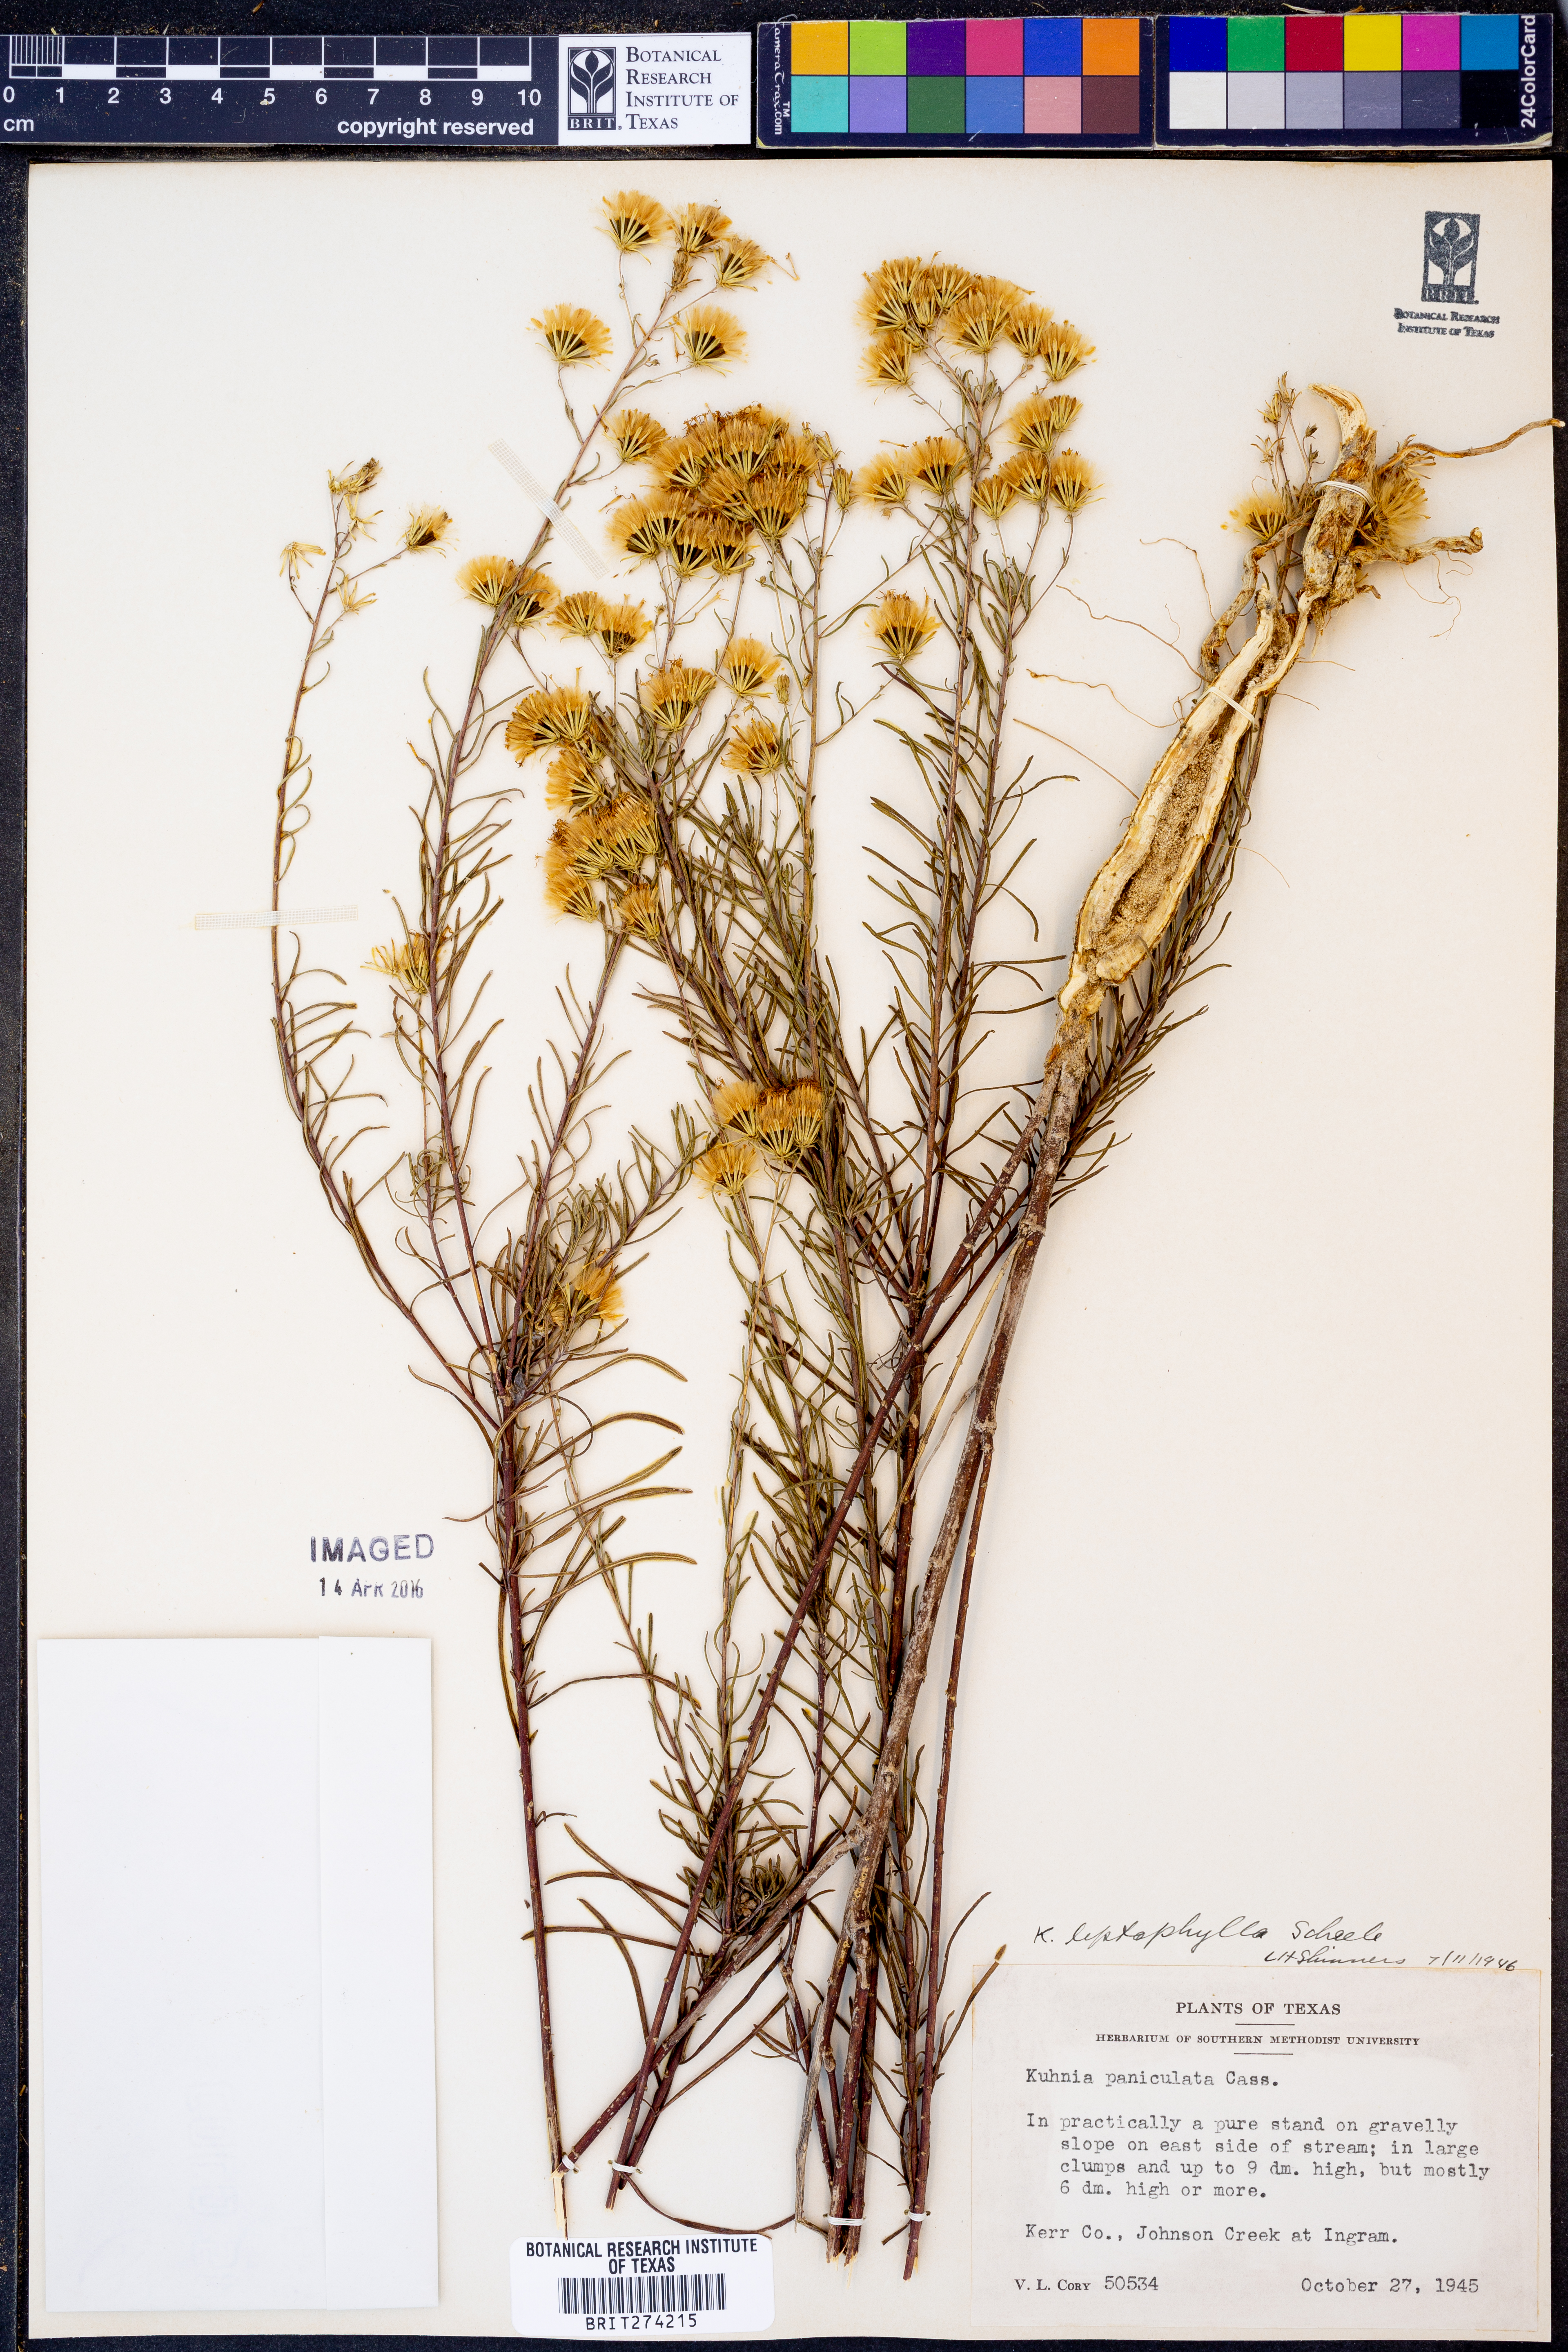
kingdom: Plantae
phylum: Tracheophyta
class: Magnoliopsida
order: Asterales
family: Asteraceae
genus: Brickellia
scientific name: Brickellia leptophylla
